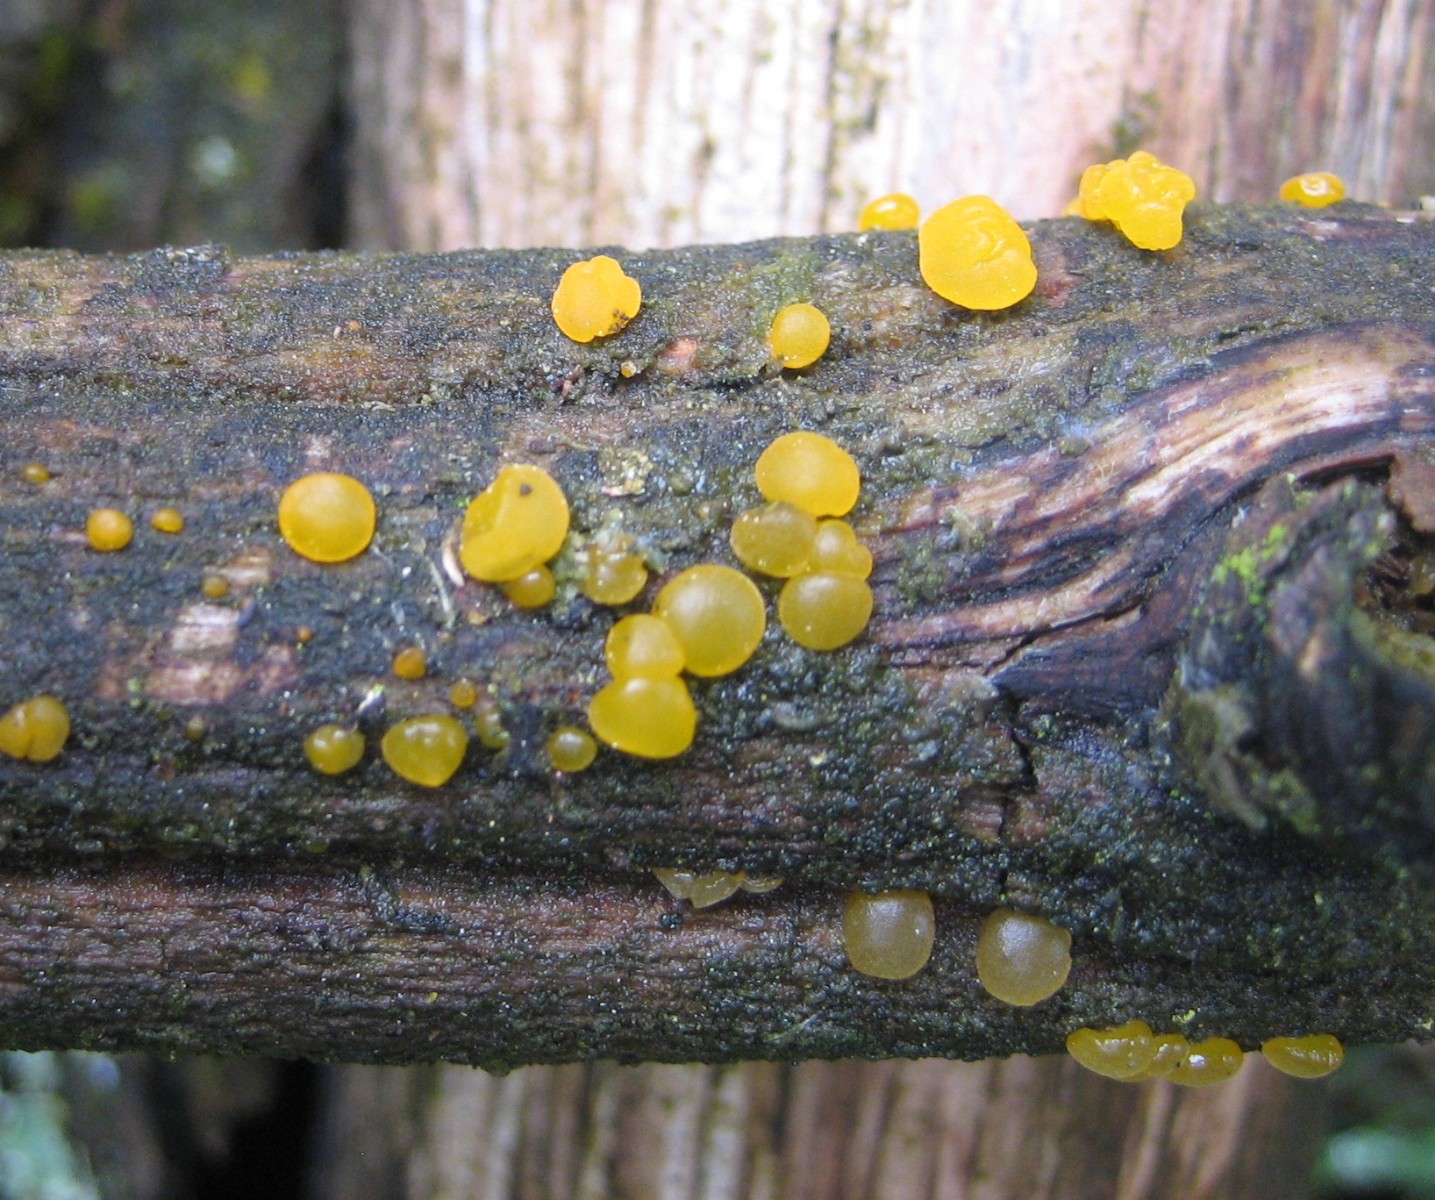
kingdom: Fungi
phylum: Basidiomycota
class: Dacrymycetes
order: Dacrymycetales
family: Dacrymycetaceae
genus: Dacrymyces
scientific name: Dacrymyces
